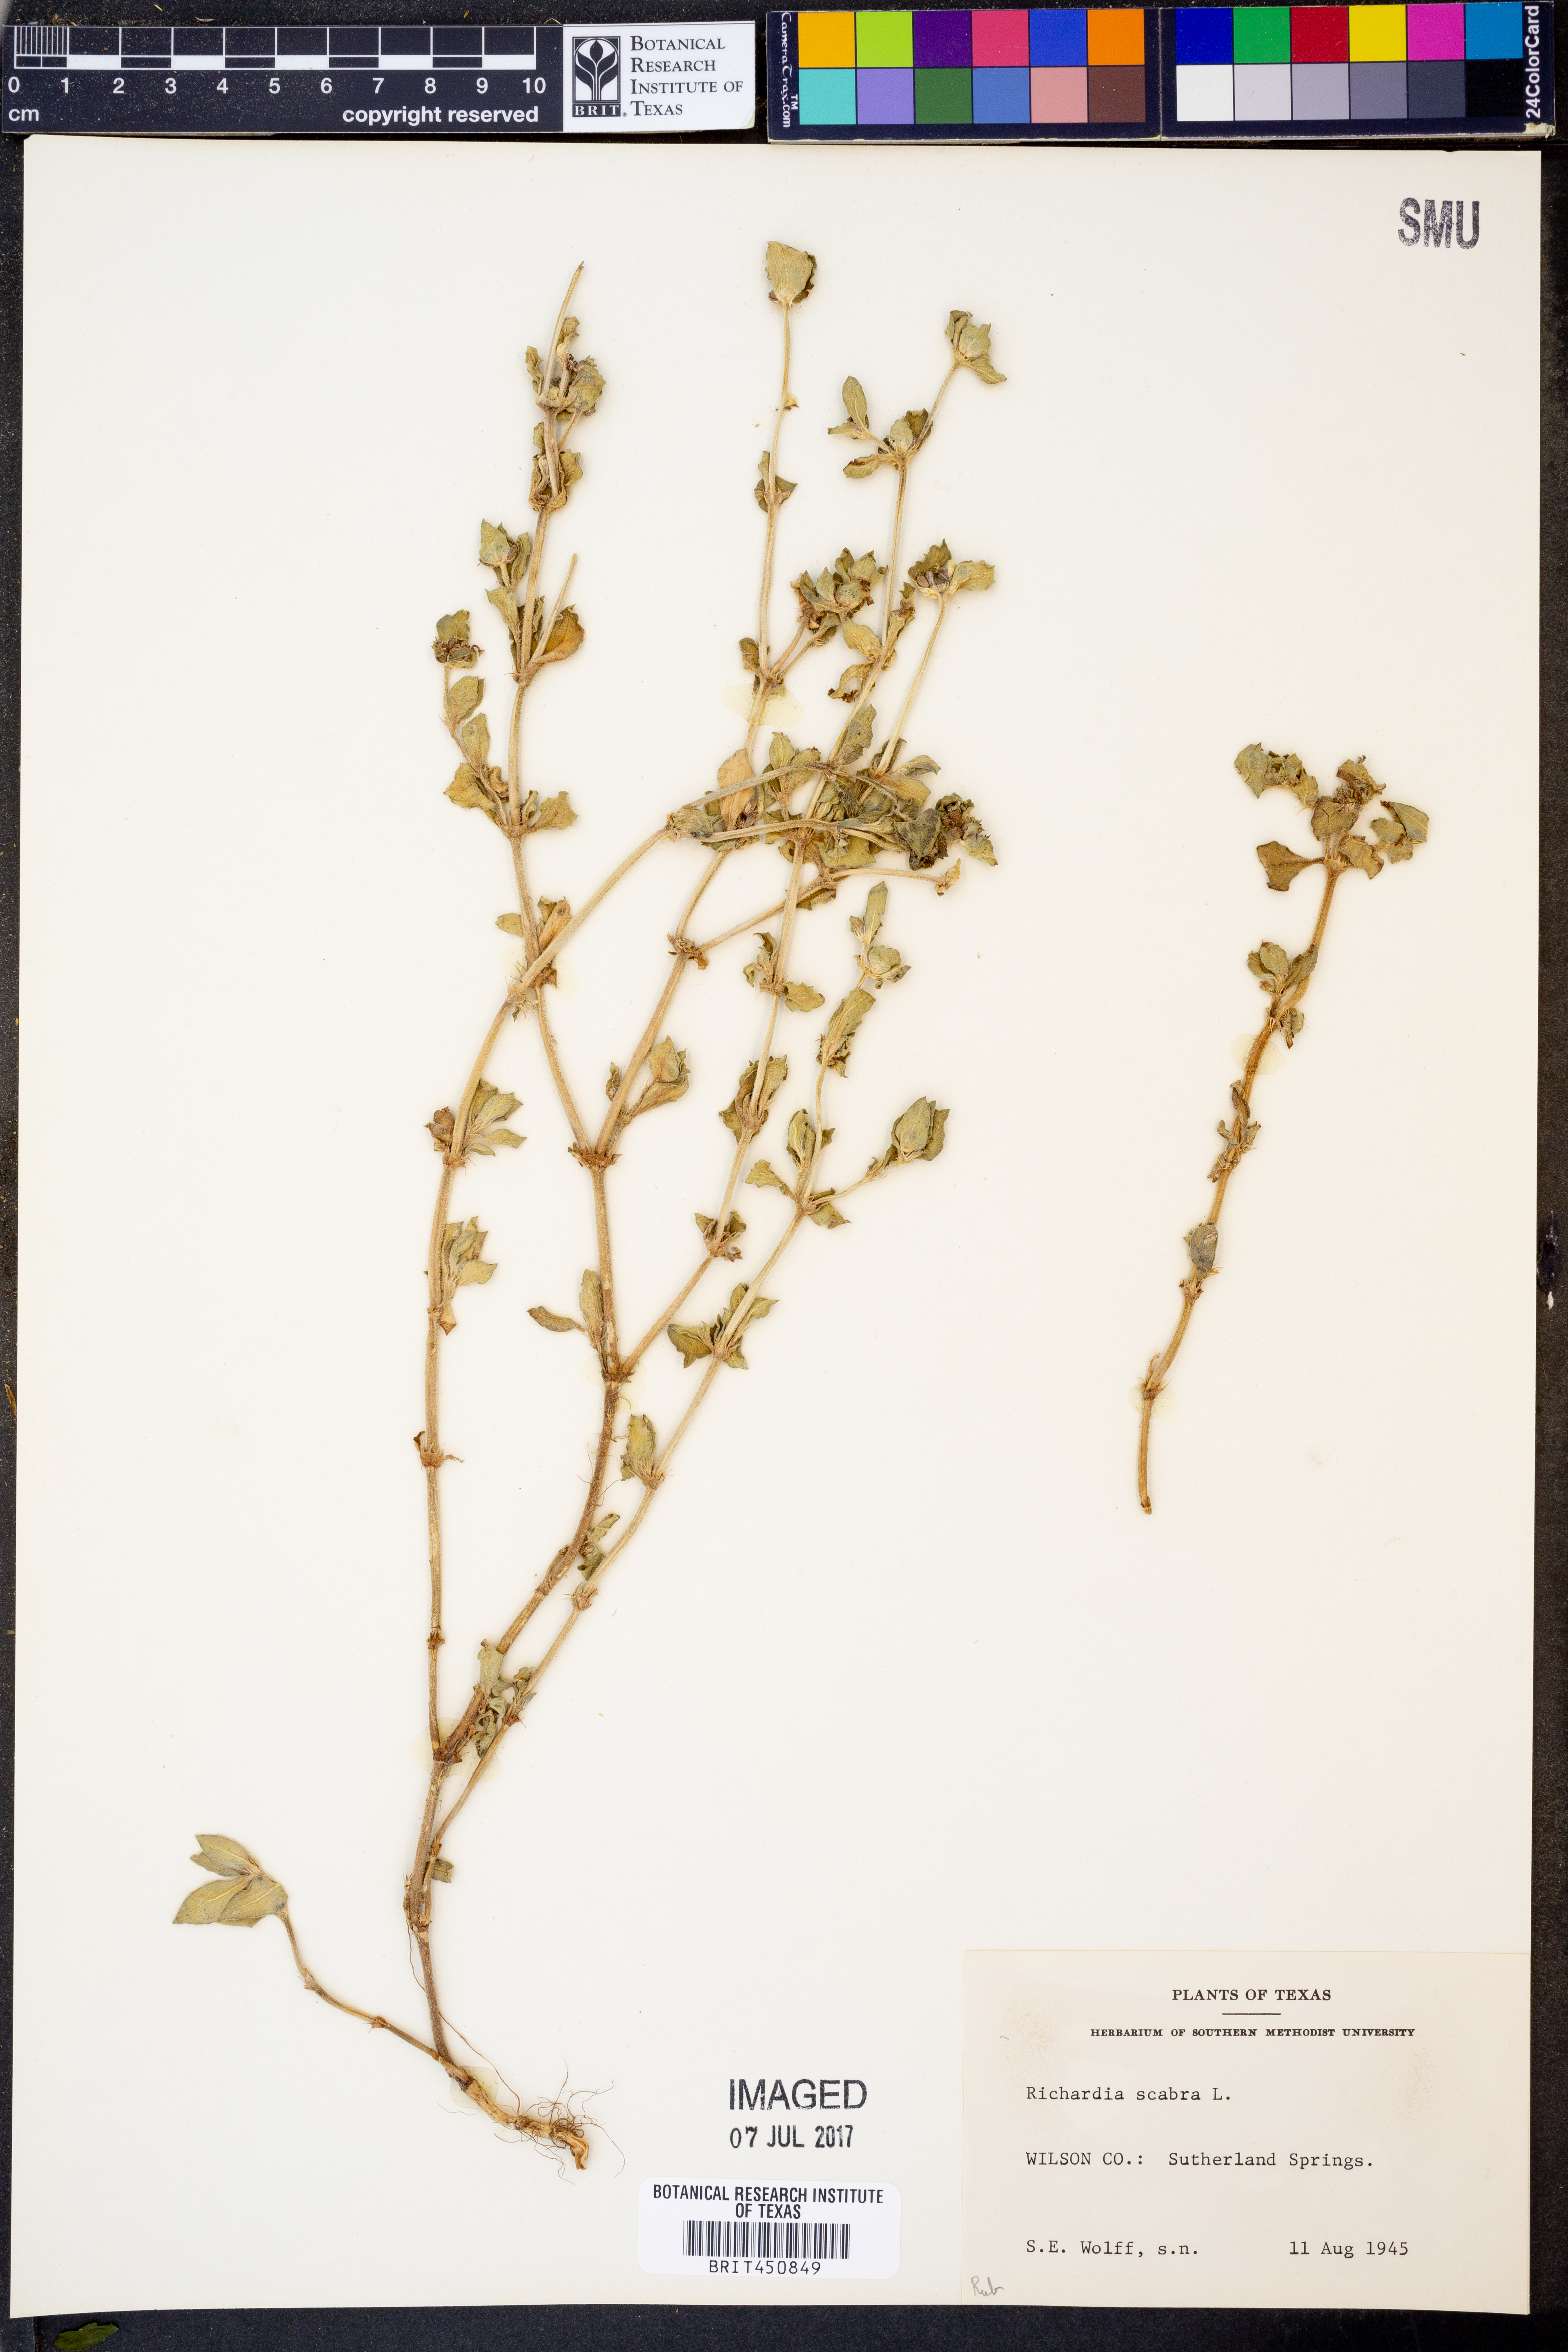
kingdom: Plantae
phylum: Tracheophyta
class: Magnoliopsida
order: Gentianales
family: Rubiaceae
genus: Richardia
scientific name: Richardia scabra
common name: Rough mexican clover
